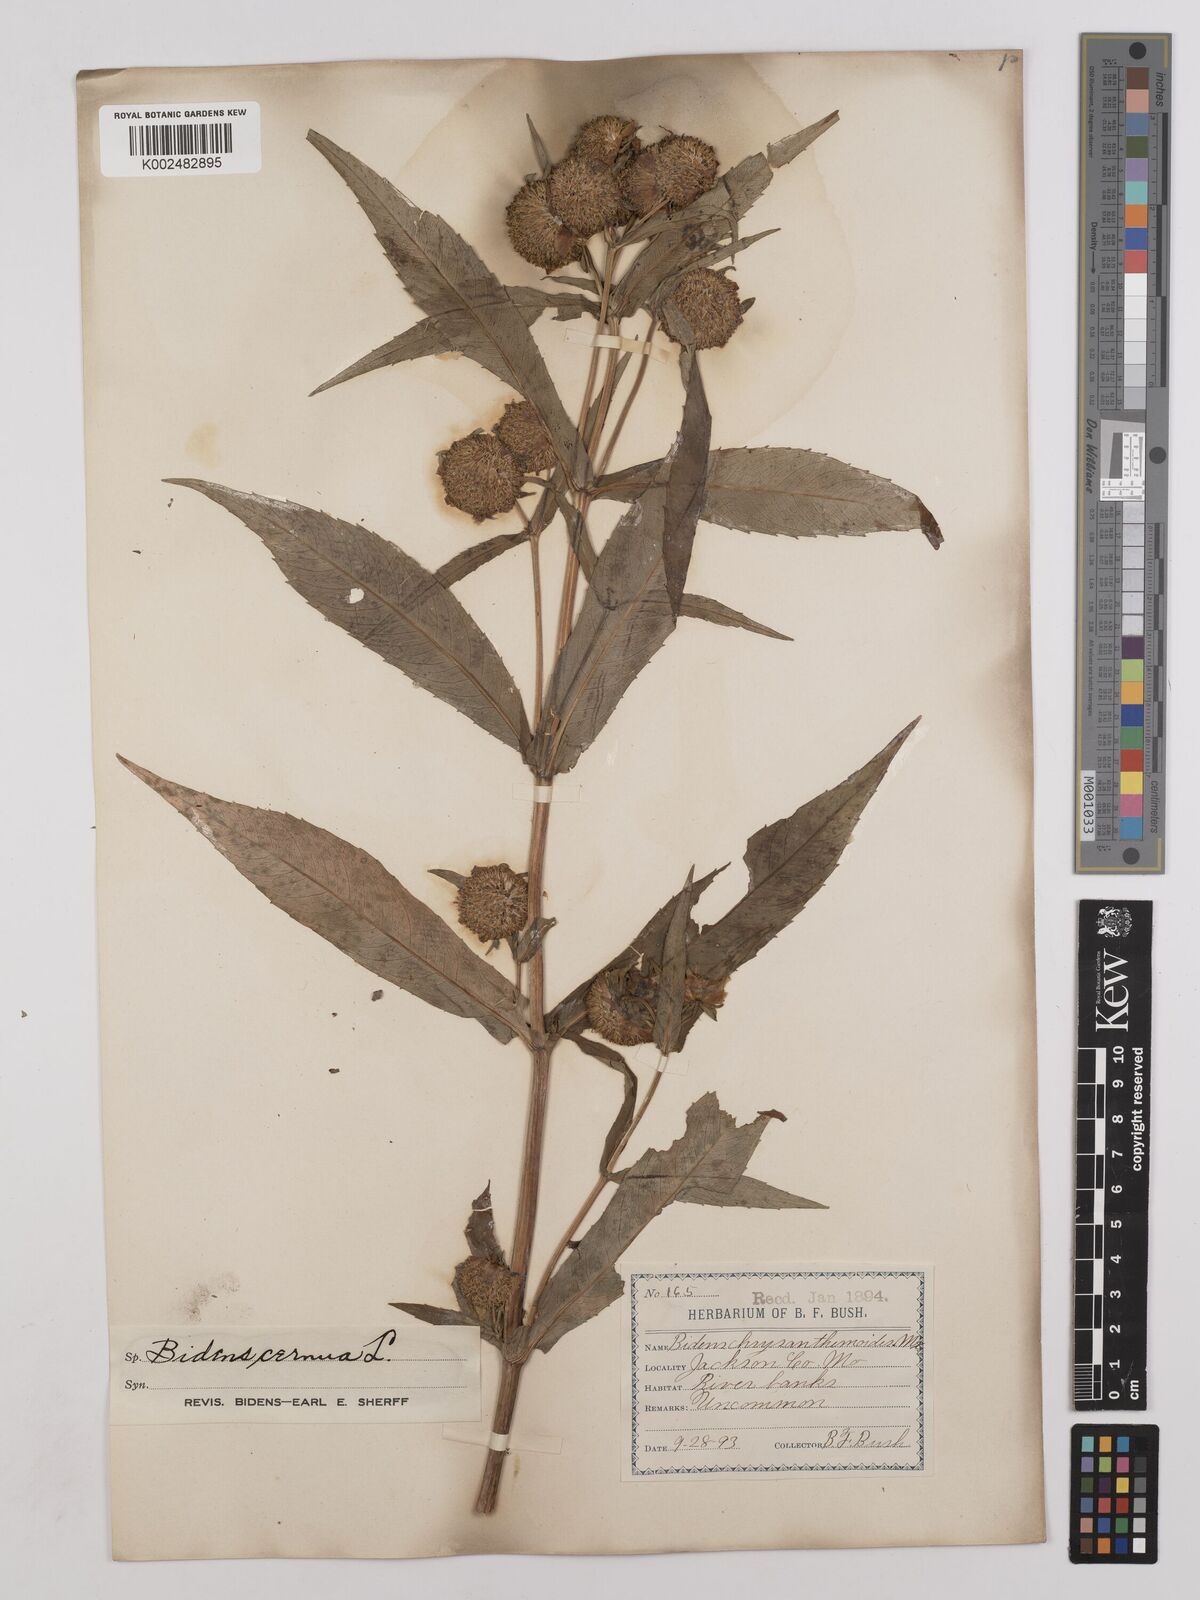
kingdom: Plantae
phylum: Tracheophyta
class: Magnoliopsida
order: Asterales
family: Asteraceae
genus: Bidens
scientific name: Bidens
